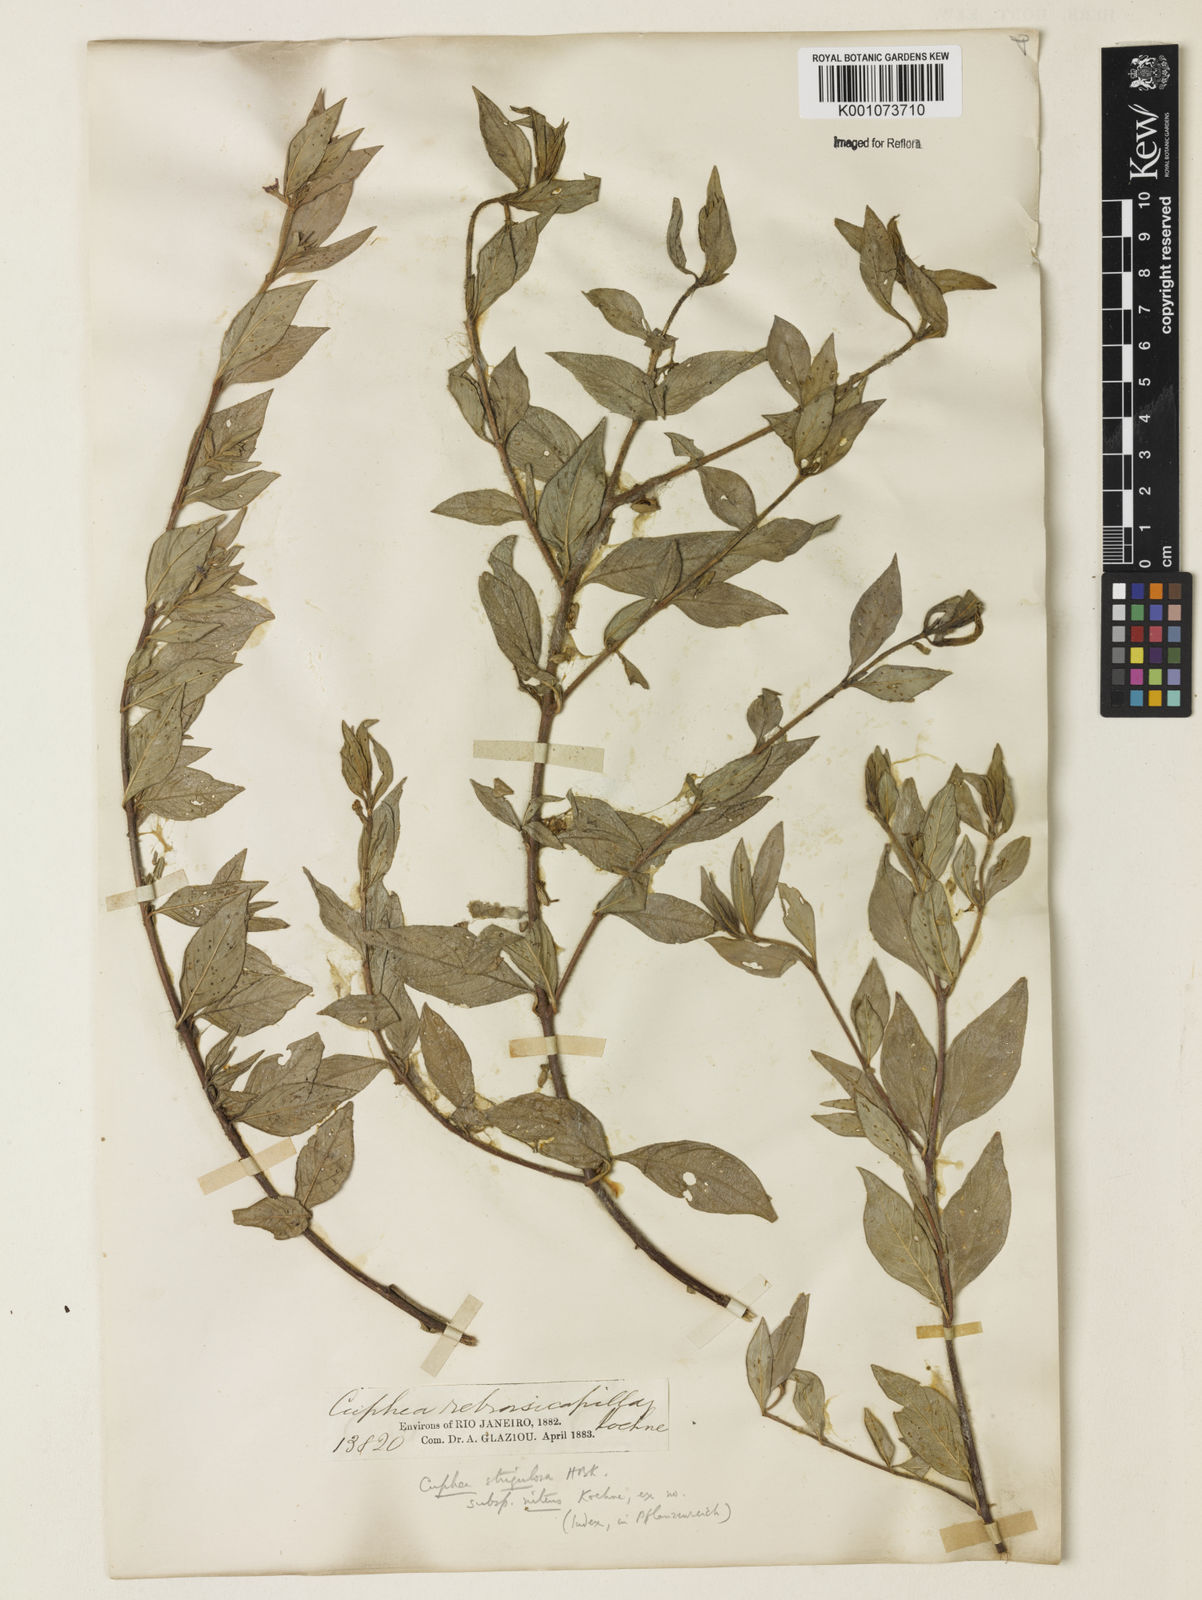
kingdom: Plantae
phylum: Tracheophyta
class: Magnoliopsida
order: Myrtales
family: Lythraceae
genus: Cuphea
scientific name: Cuphea strigulosa
